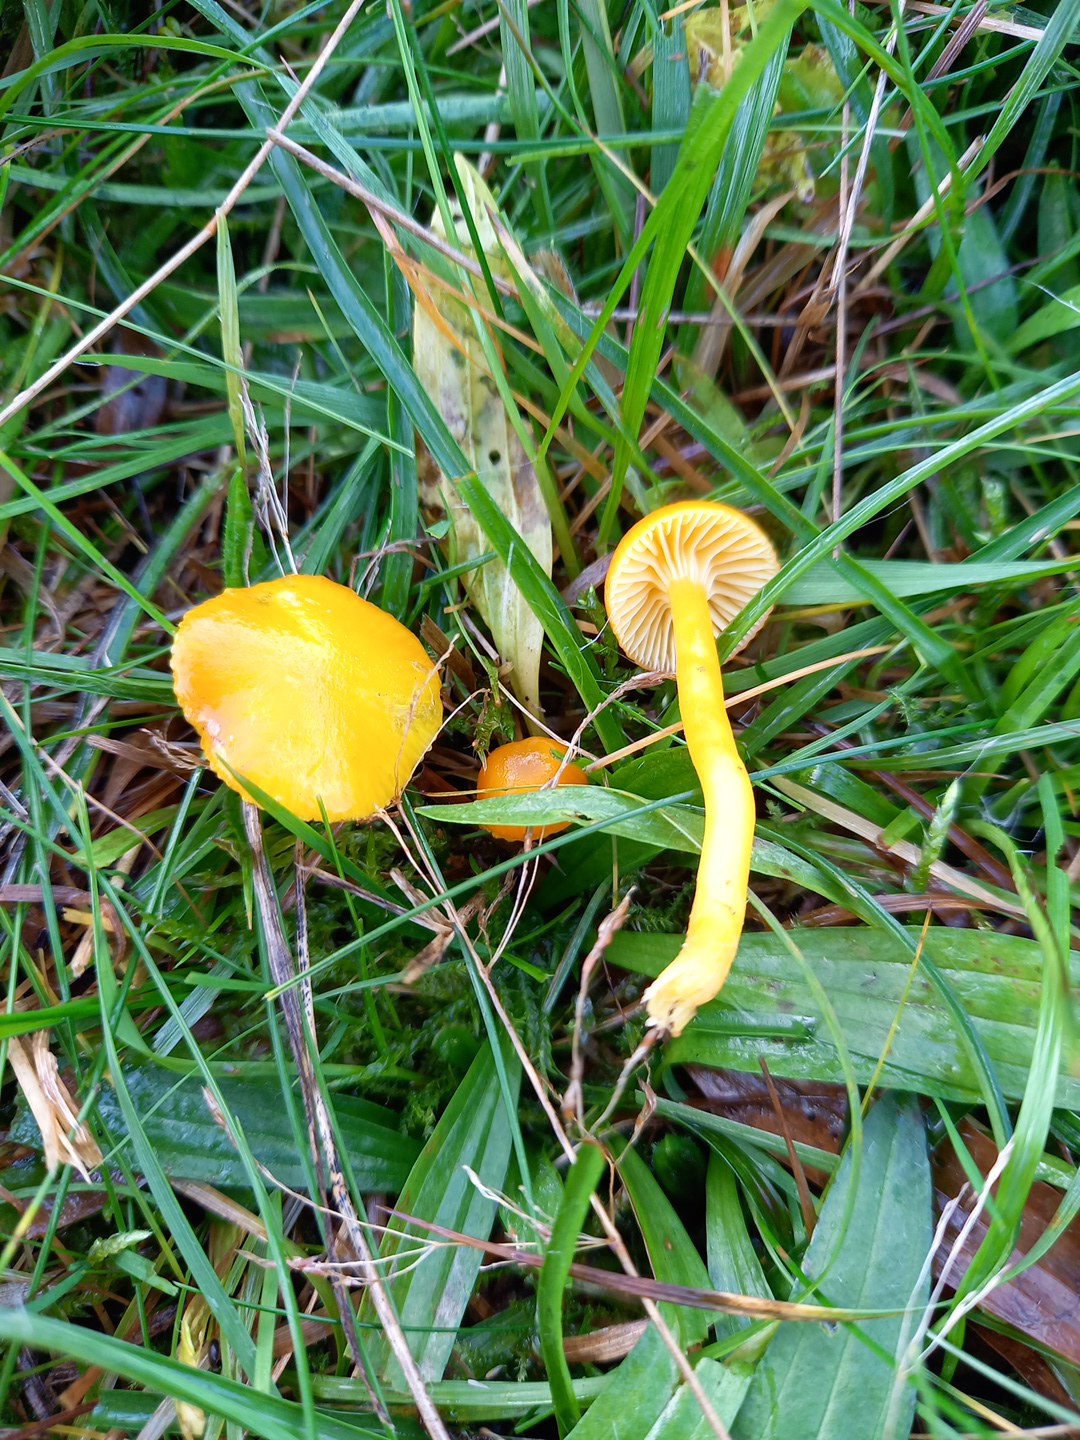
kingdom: Fungi
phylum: Basidiomycota
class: Agaricomycetes
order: Agaricales
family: Hygrophoraceae
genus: Hygrocybe
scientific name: Hygrocybe ceracea
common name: voksgul vokshat
